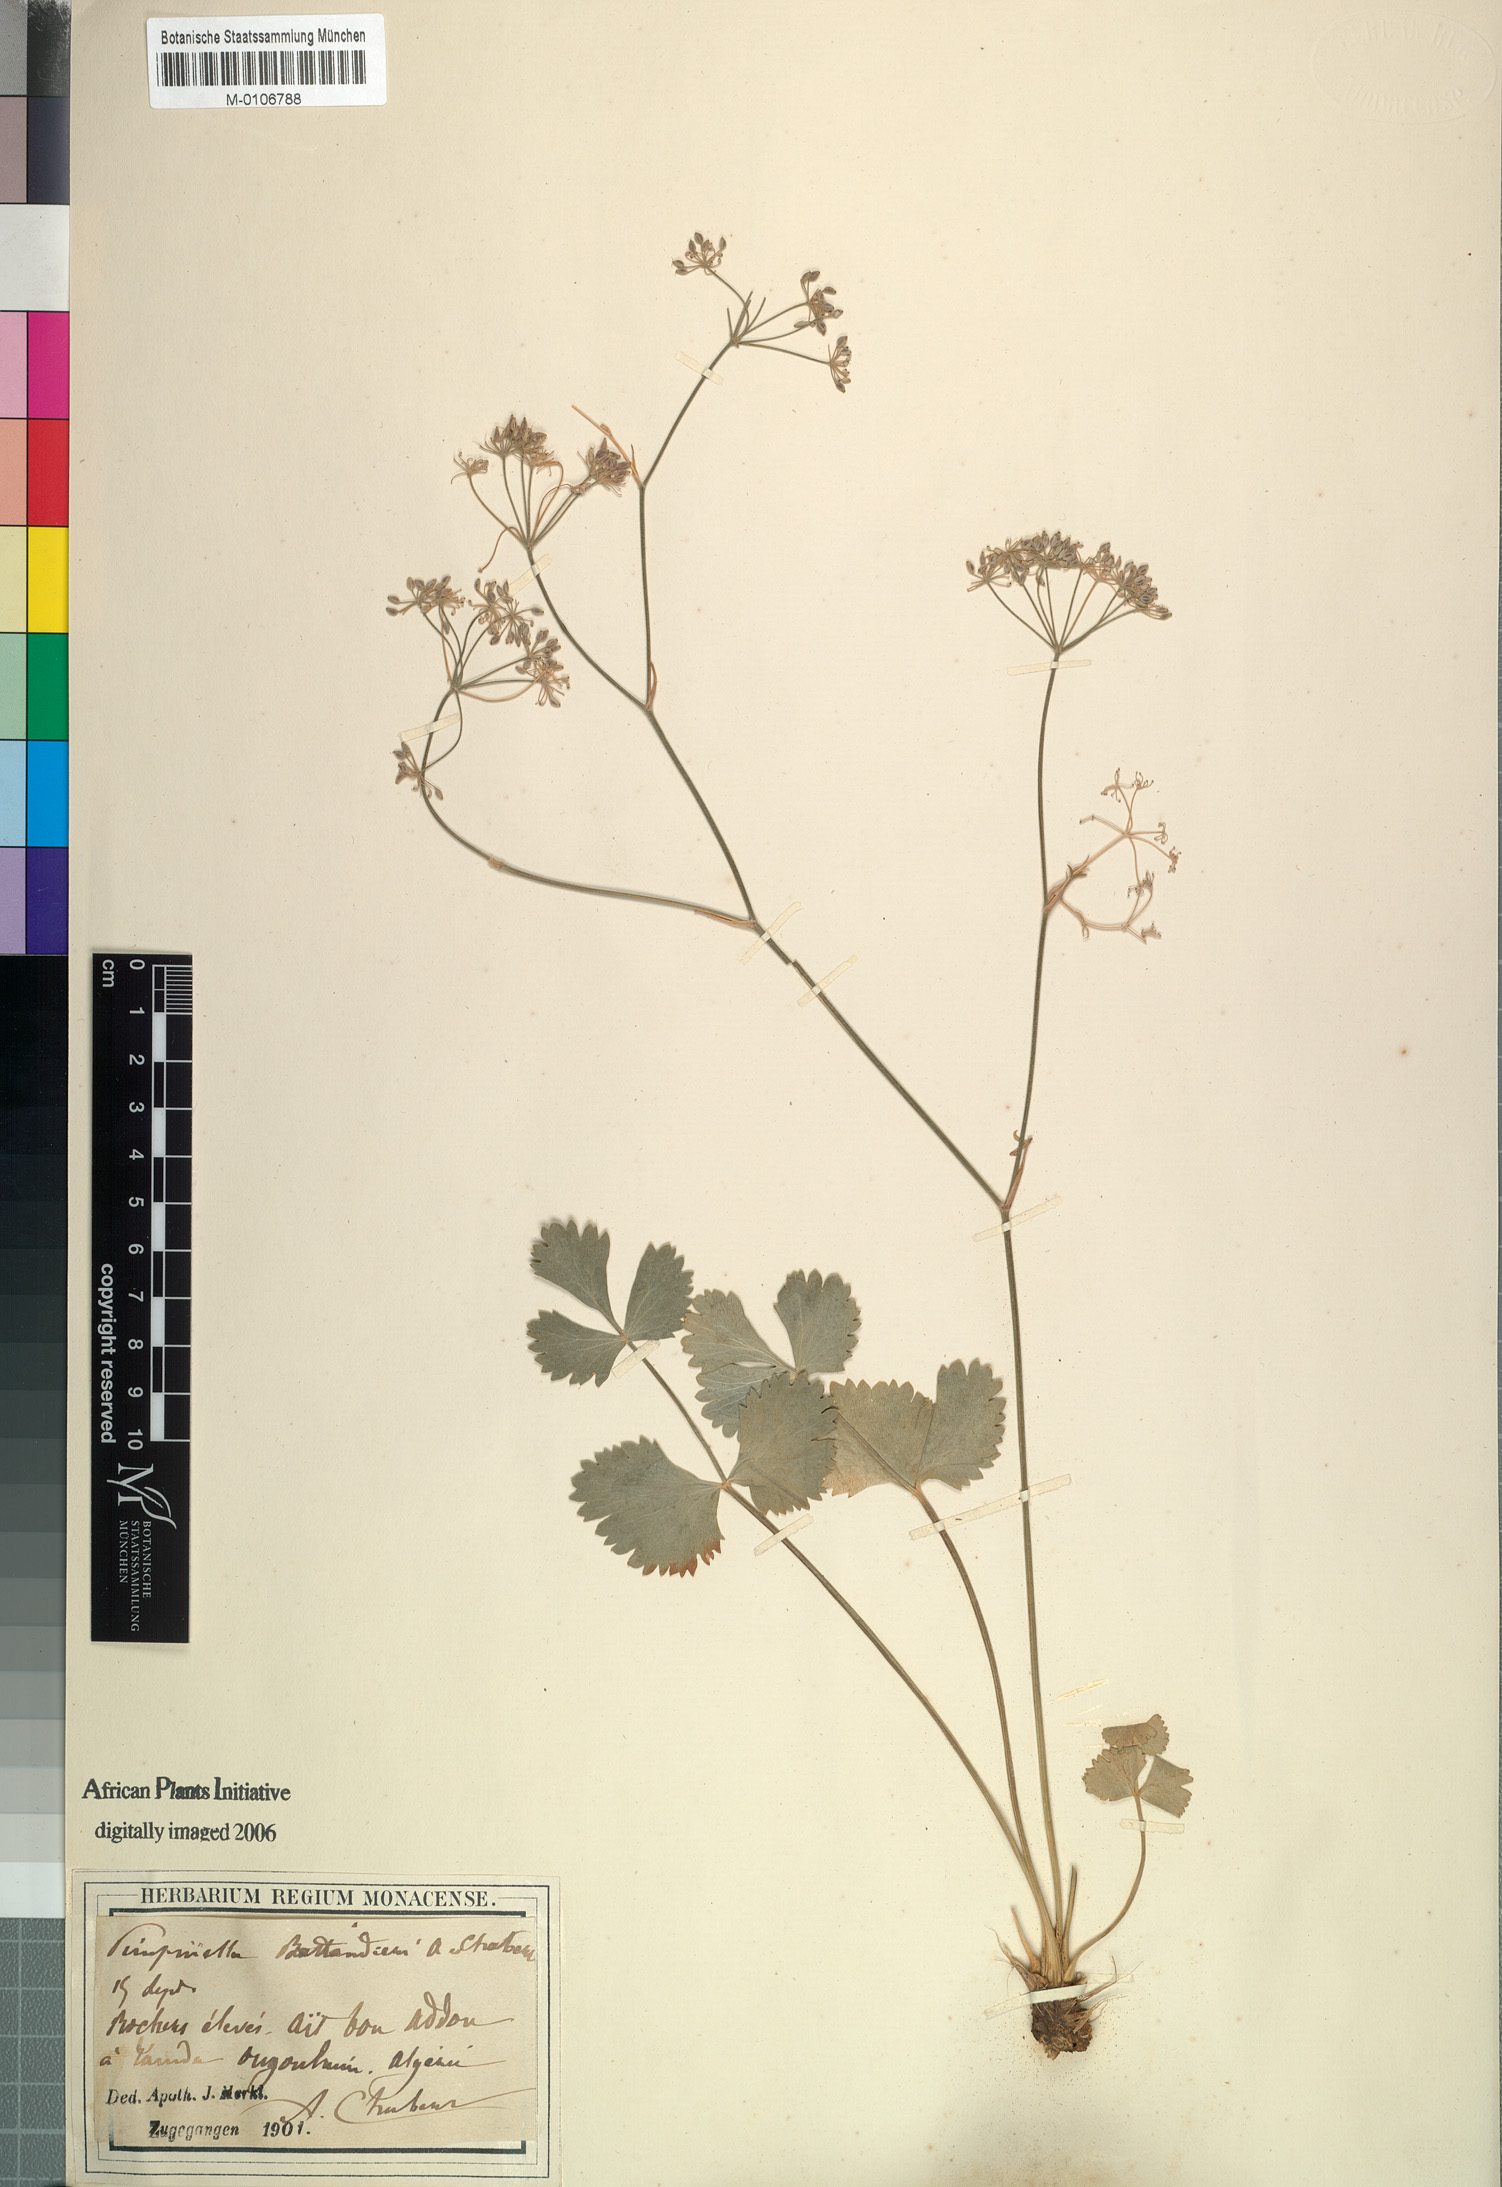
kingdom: Plantae
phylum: Tracheophyta
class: Magnoliopsida
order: Apiales
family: Apiaceae
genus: Pimpinella
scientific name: Pimpinella battandieri
